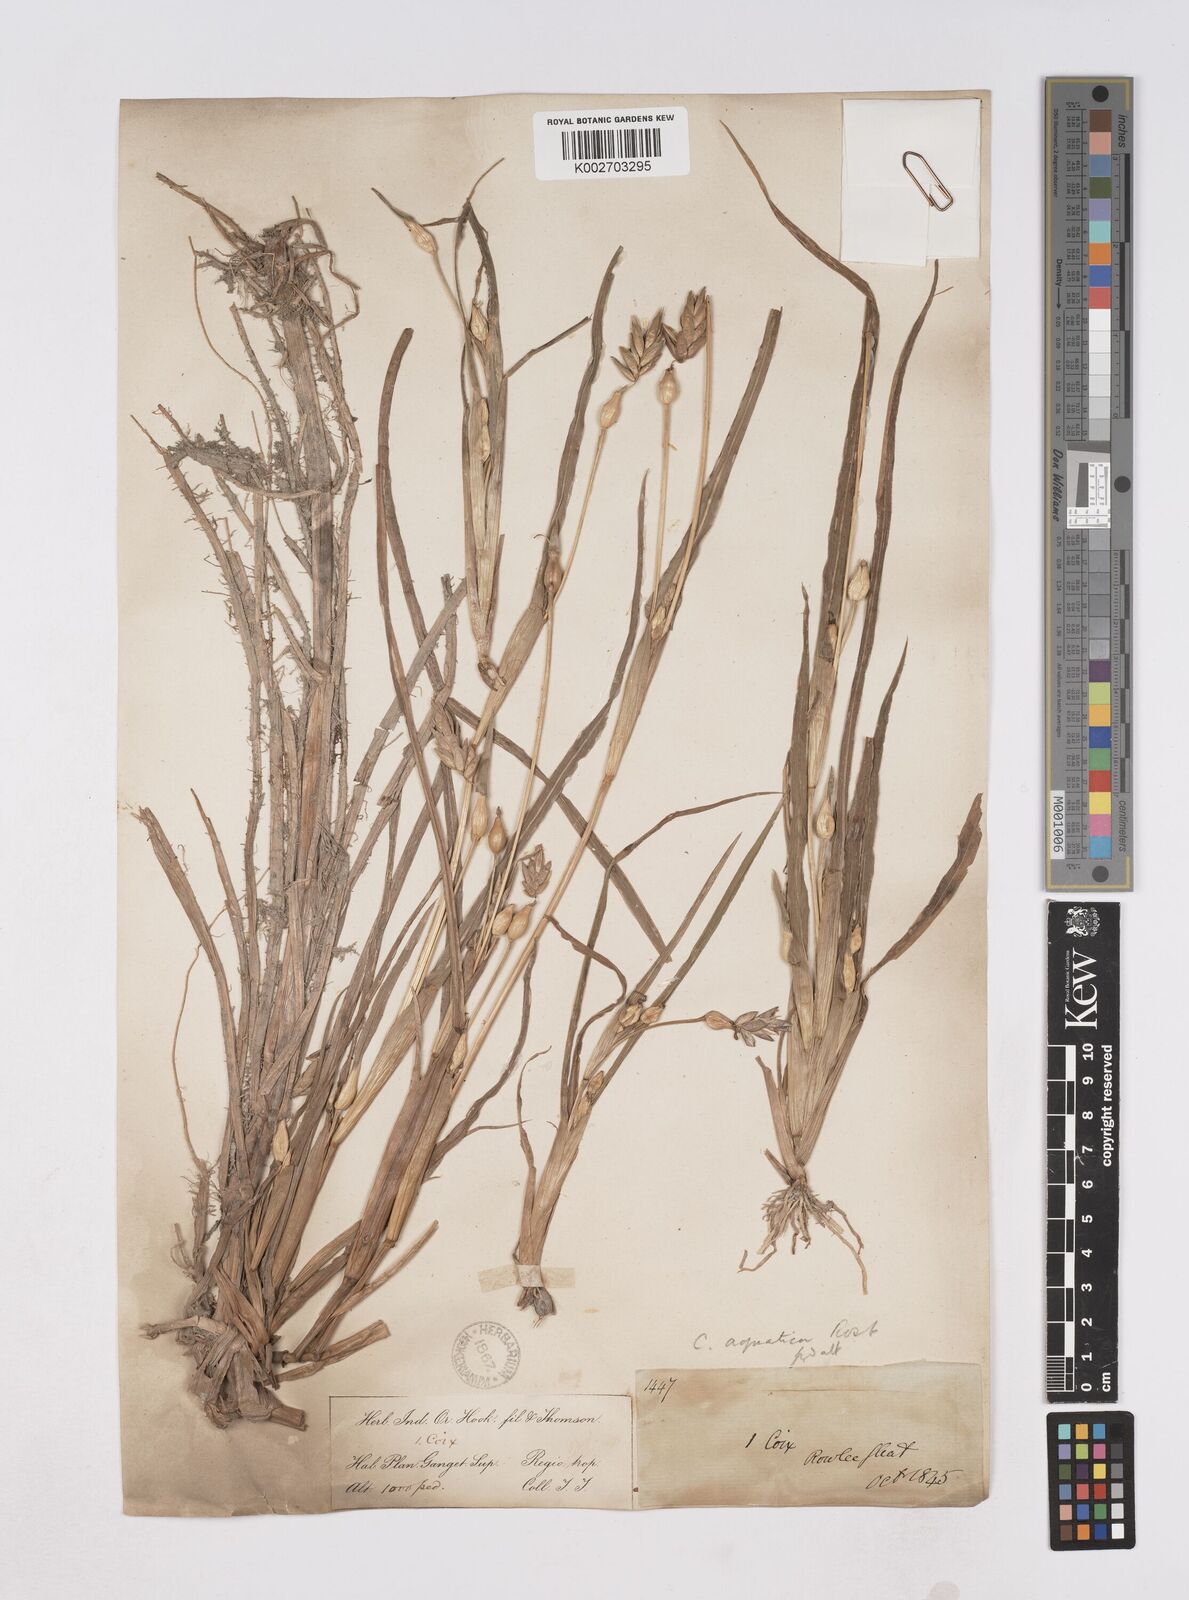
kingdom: Plantae
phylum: Tracheophyta
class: Liliopsida
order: Poales
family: Poaceae
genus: Coix
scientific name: Coix aquatica
